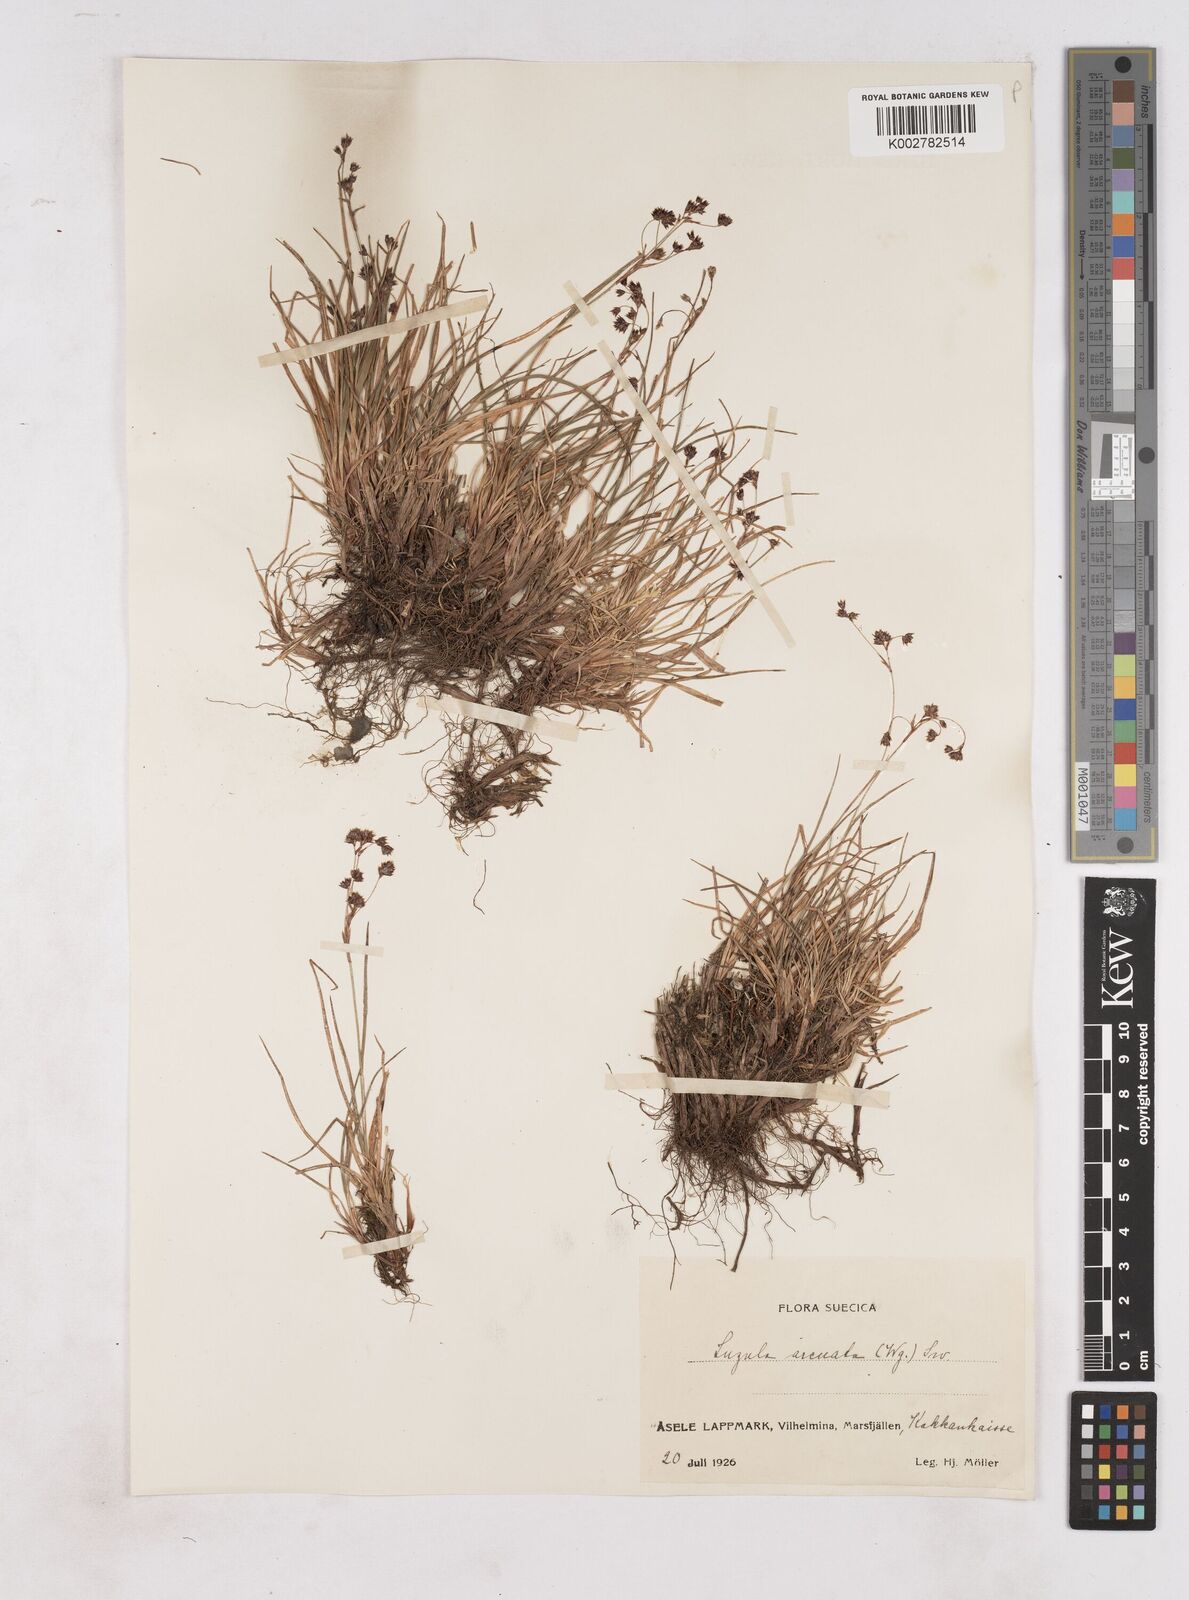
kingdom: Plantae
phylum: Tracheophyta
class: Liliopsida
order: Poales
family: Juncaceae
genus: Luzula
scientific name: Luzula arcuata
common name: Curved wood-rush
